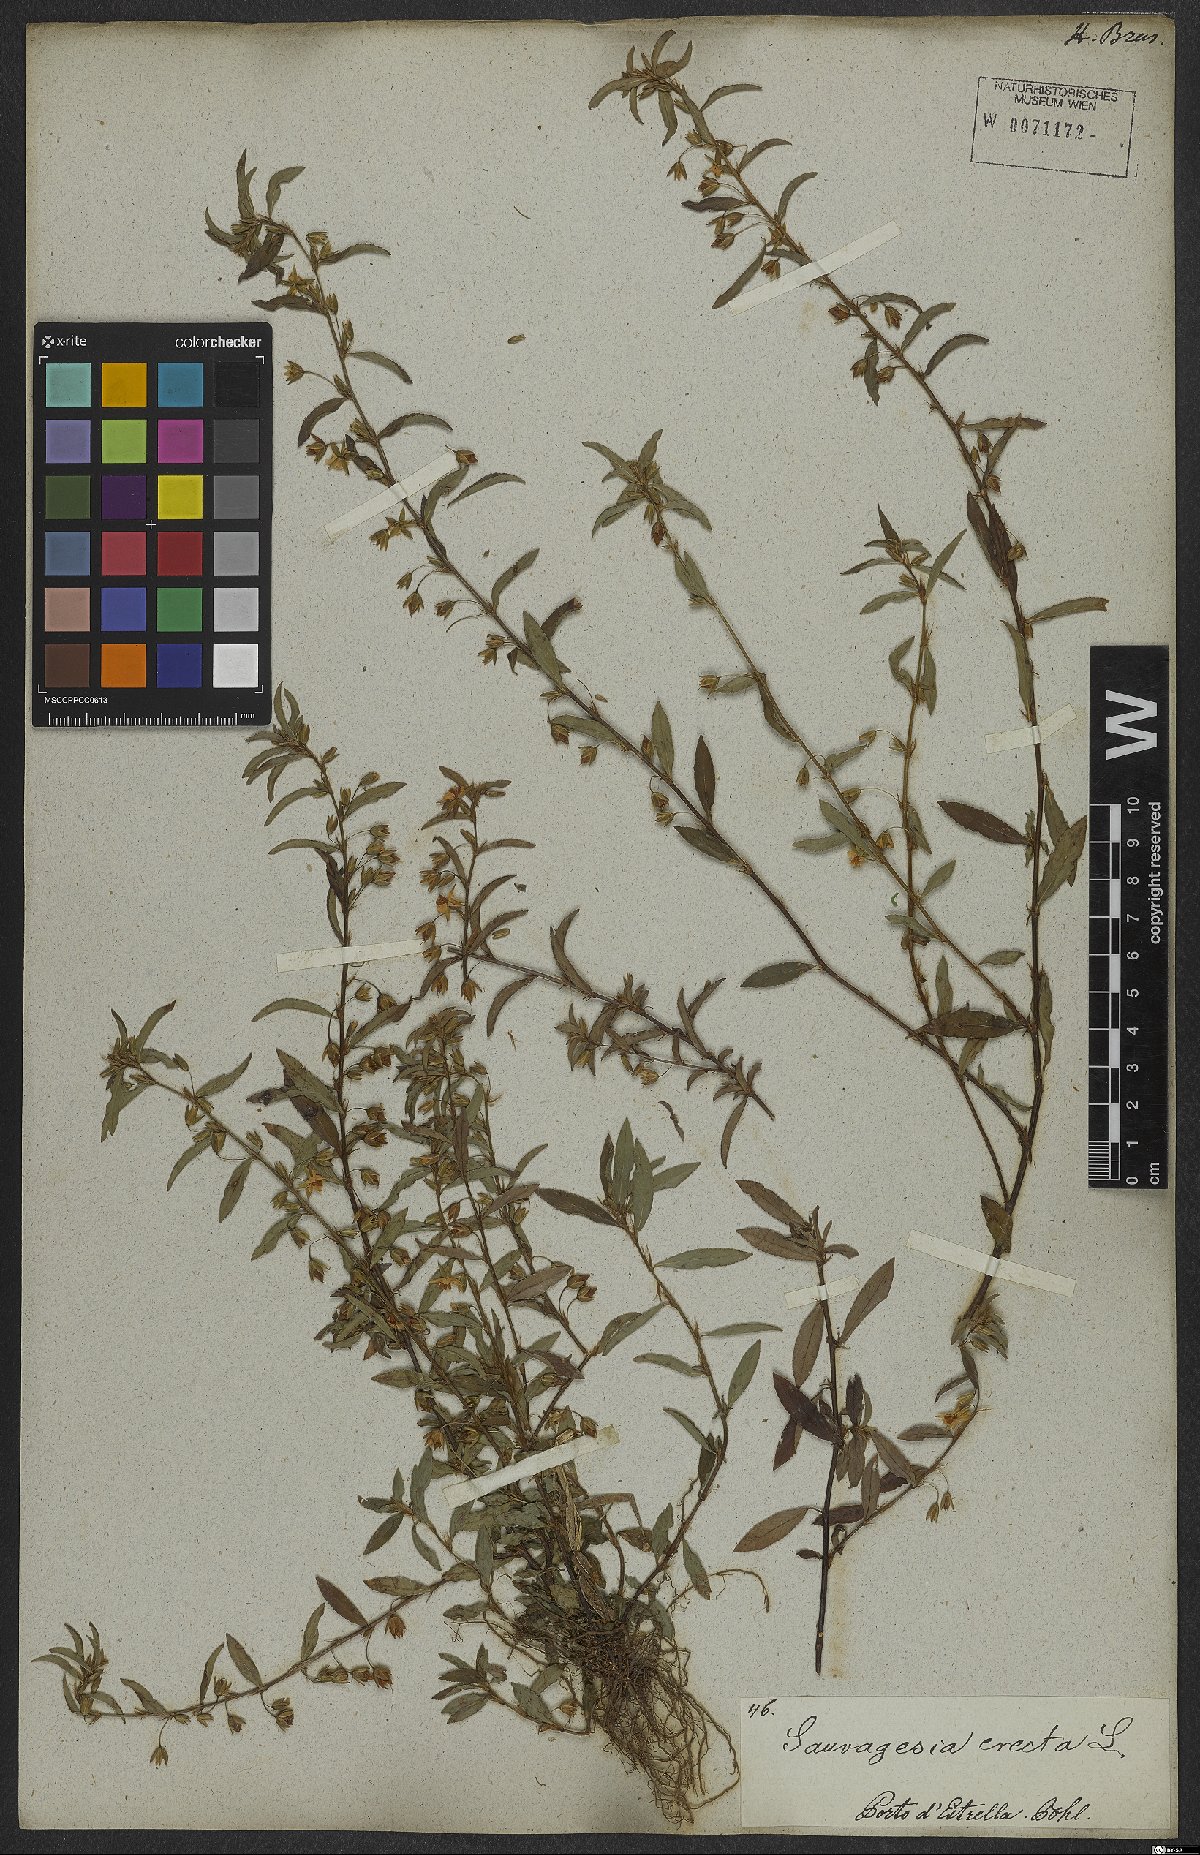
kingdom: Plantae
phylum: Tracheophyta
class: Magnoliopsida
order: Malpighiales
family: Ochnaceae
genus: Sauvagesia
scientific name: Sauvagesia erecta
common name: Creole tea
